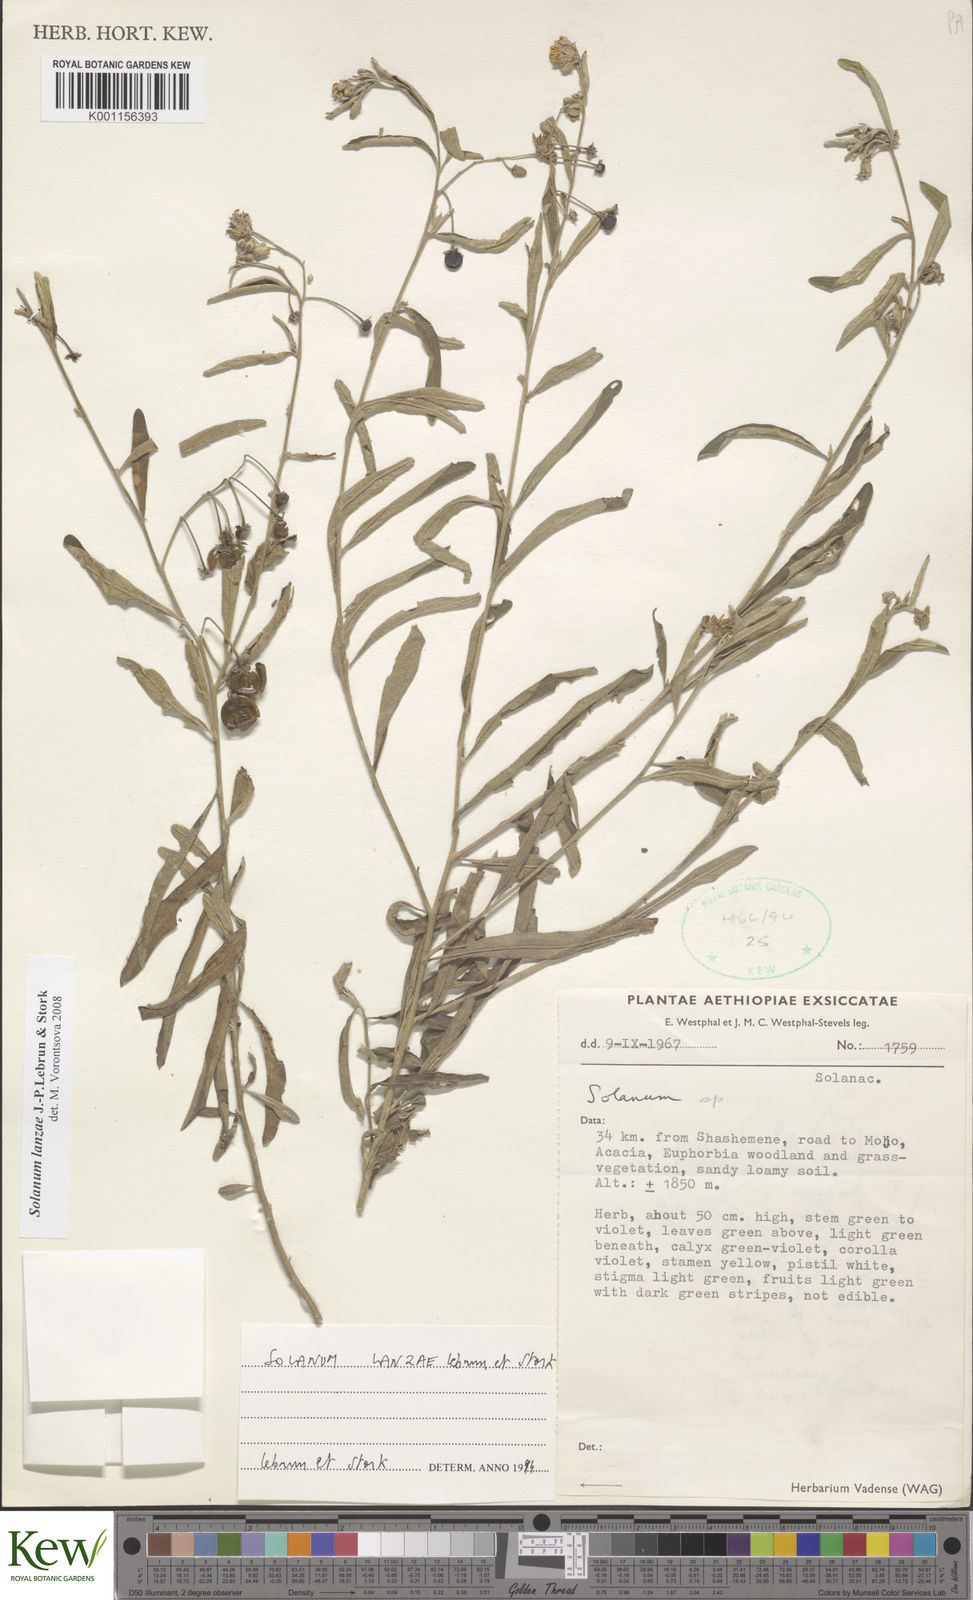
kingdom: Plantae
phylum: Tracheophyta
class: Magnoliopsida
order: Solanales
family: Solanaceae
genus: Solanum
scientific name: Solanum lanzae
